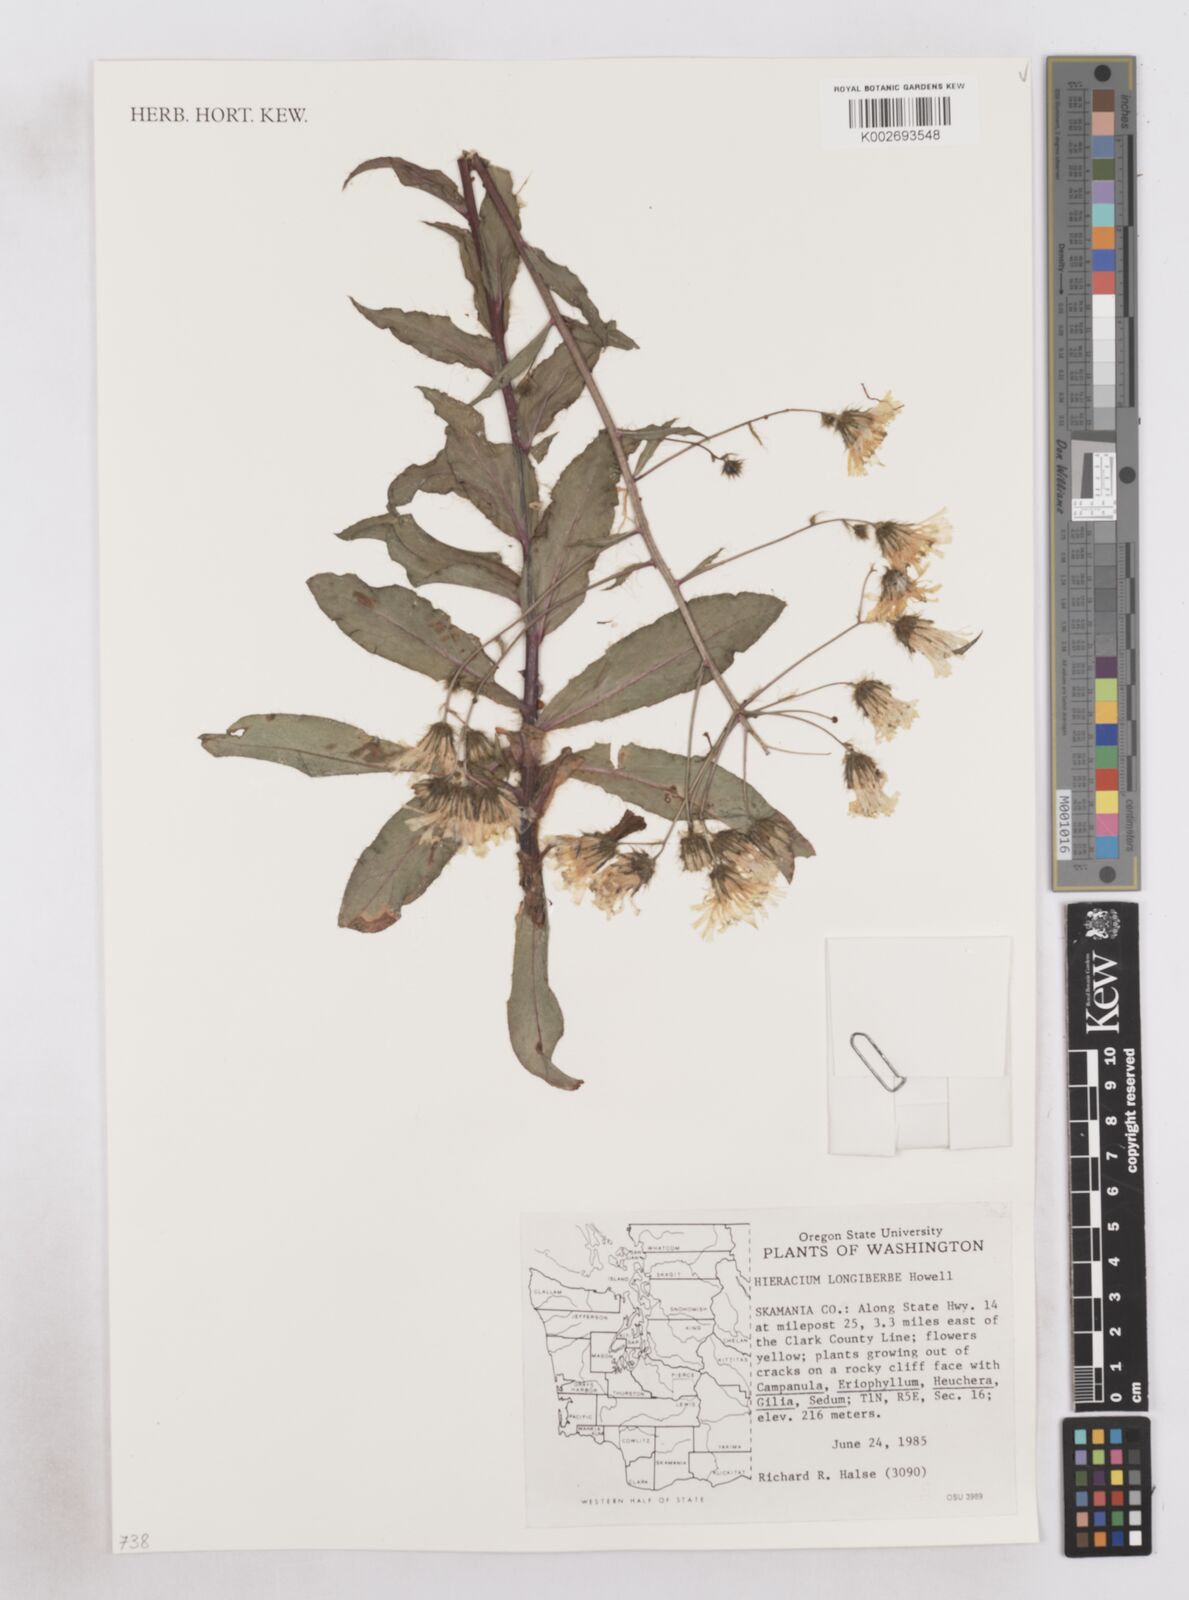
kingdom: Plantae
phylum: Tracheophyta
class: Magnoliopsida
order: Asterales
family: Asteraceae
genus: Hieracium
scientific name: Hieracium longiberbe
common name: Long-bearded hawkweed
